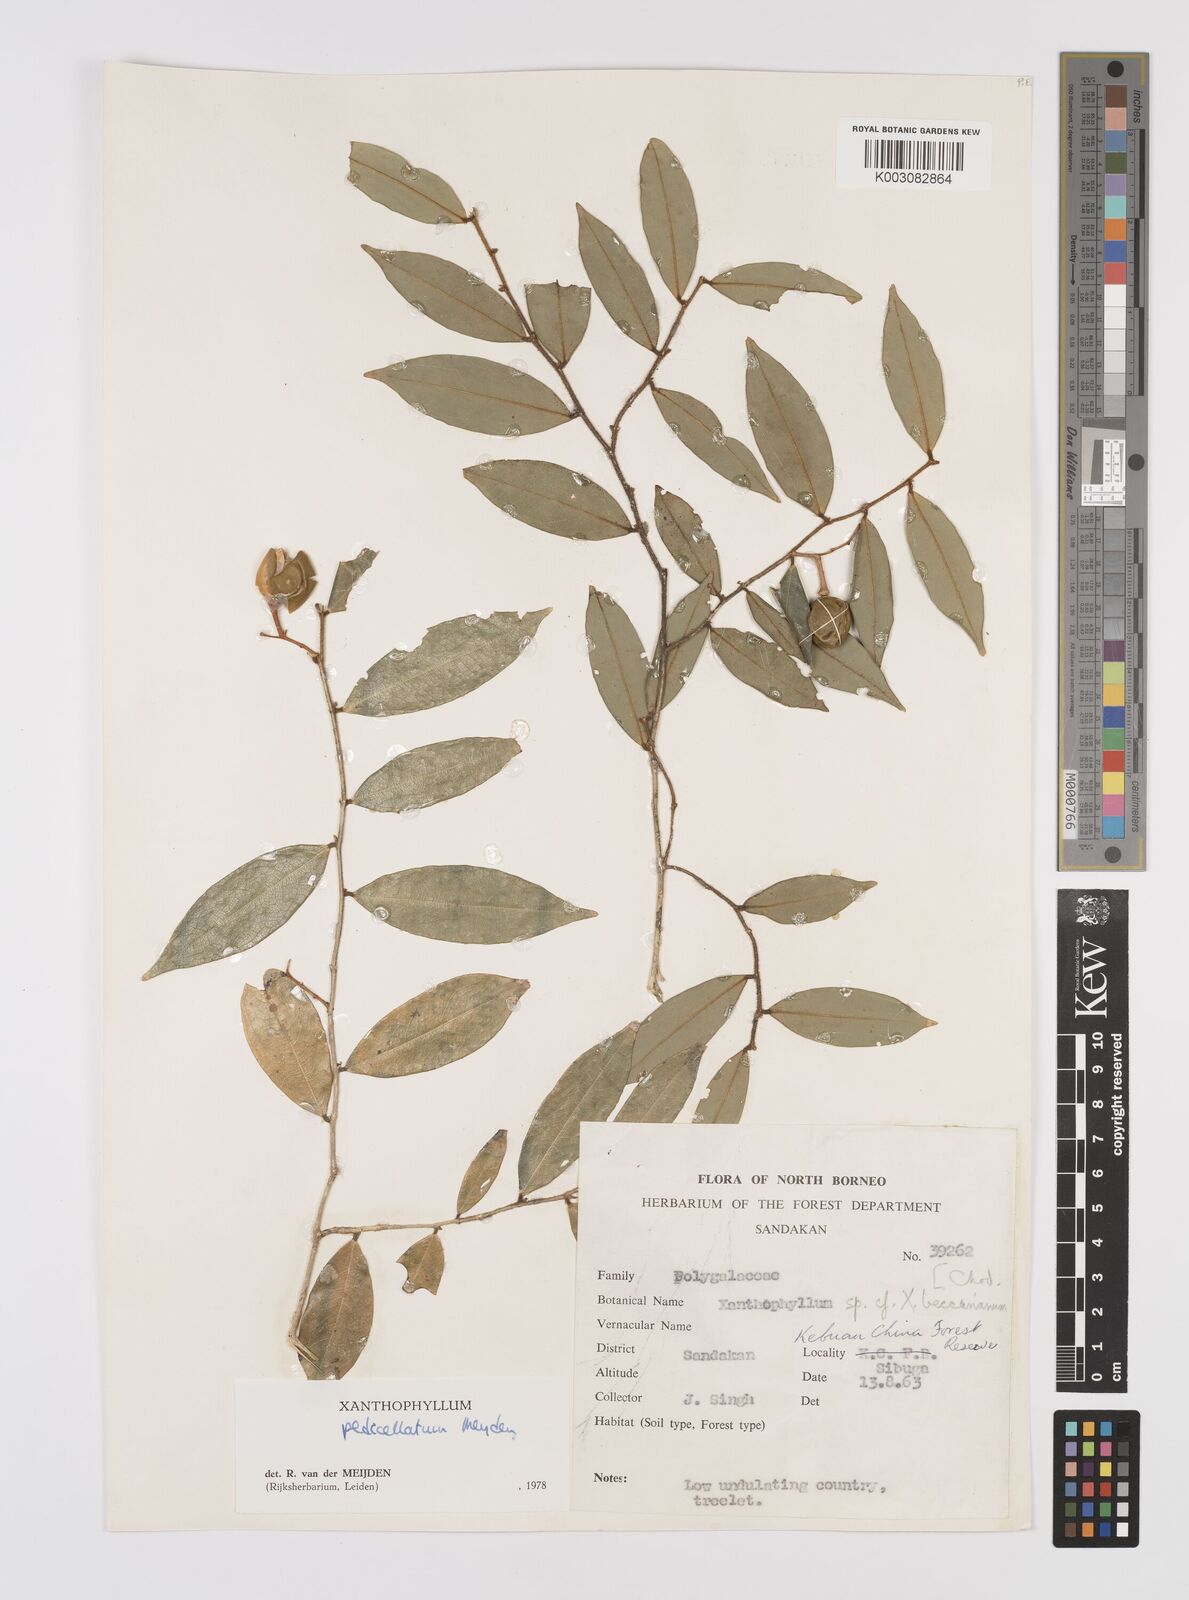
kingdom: Plantae
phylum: Tracheophyta
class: Magnoliopsida
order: Fabales
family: Polygalaceae
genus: Xanthophyllum
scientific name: Xanthophyllum pedicellatum
